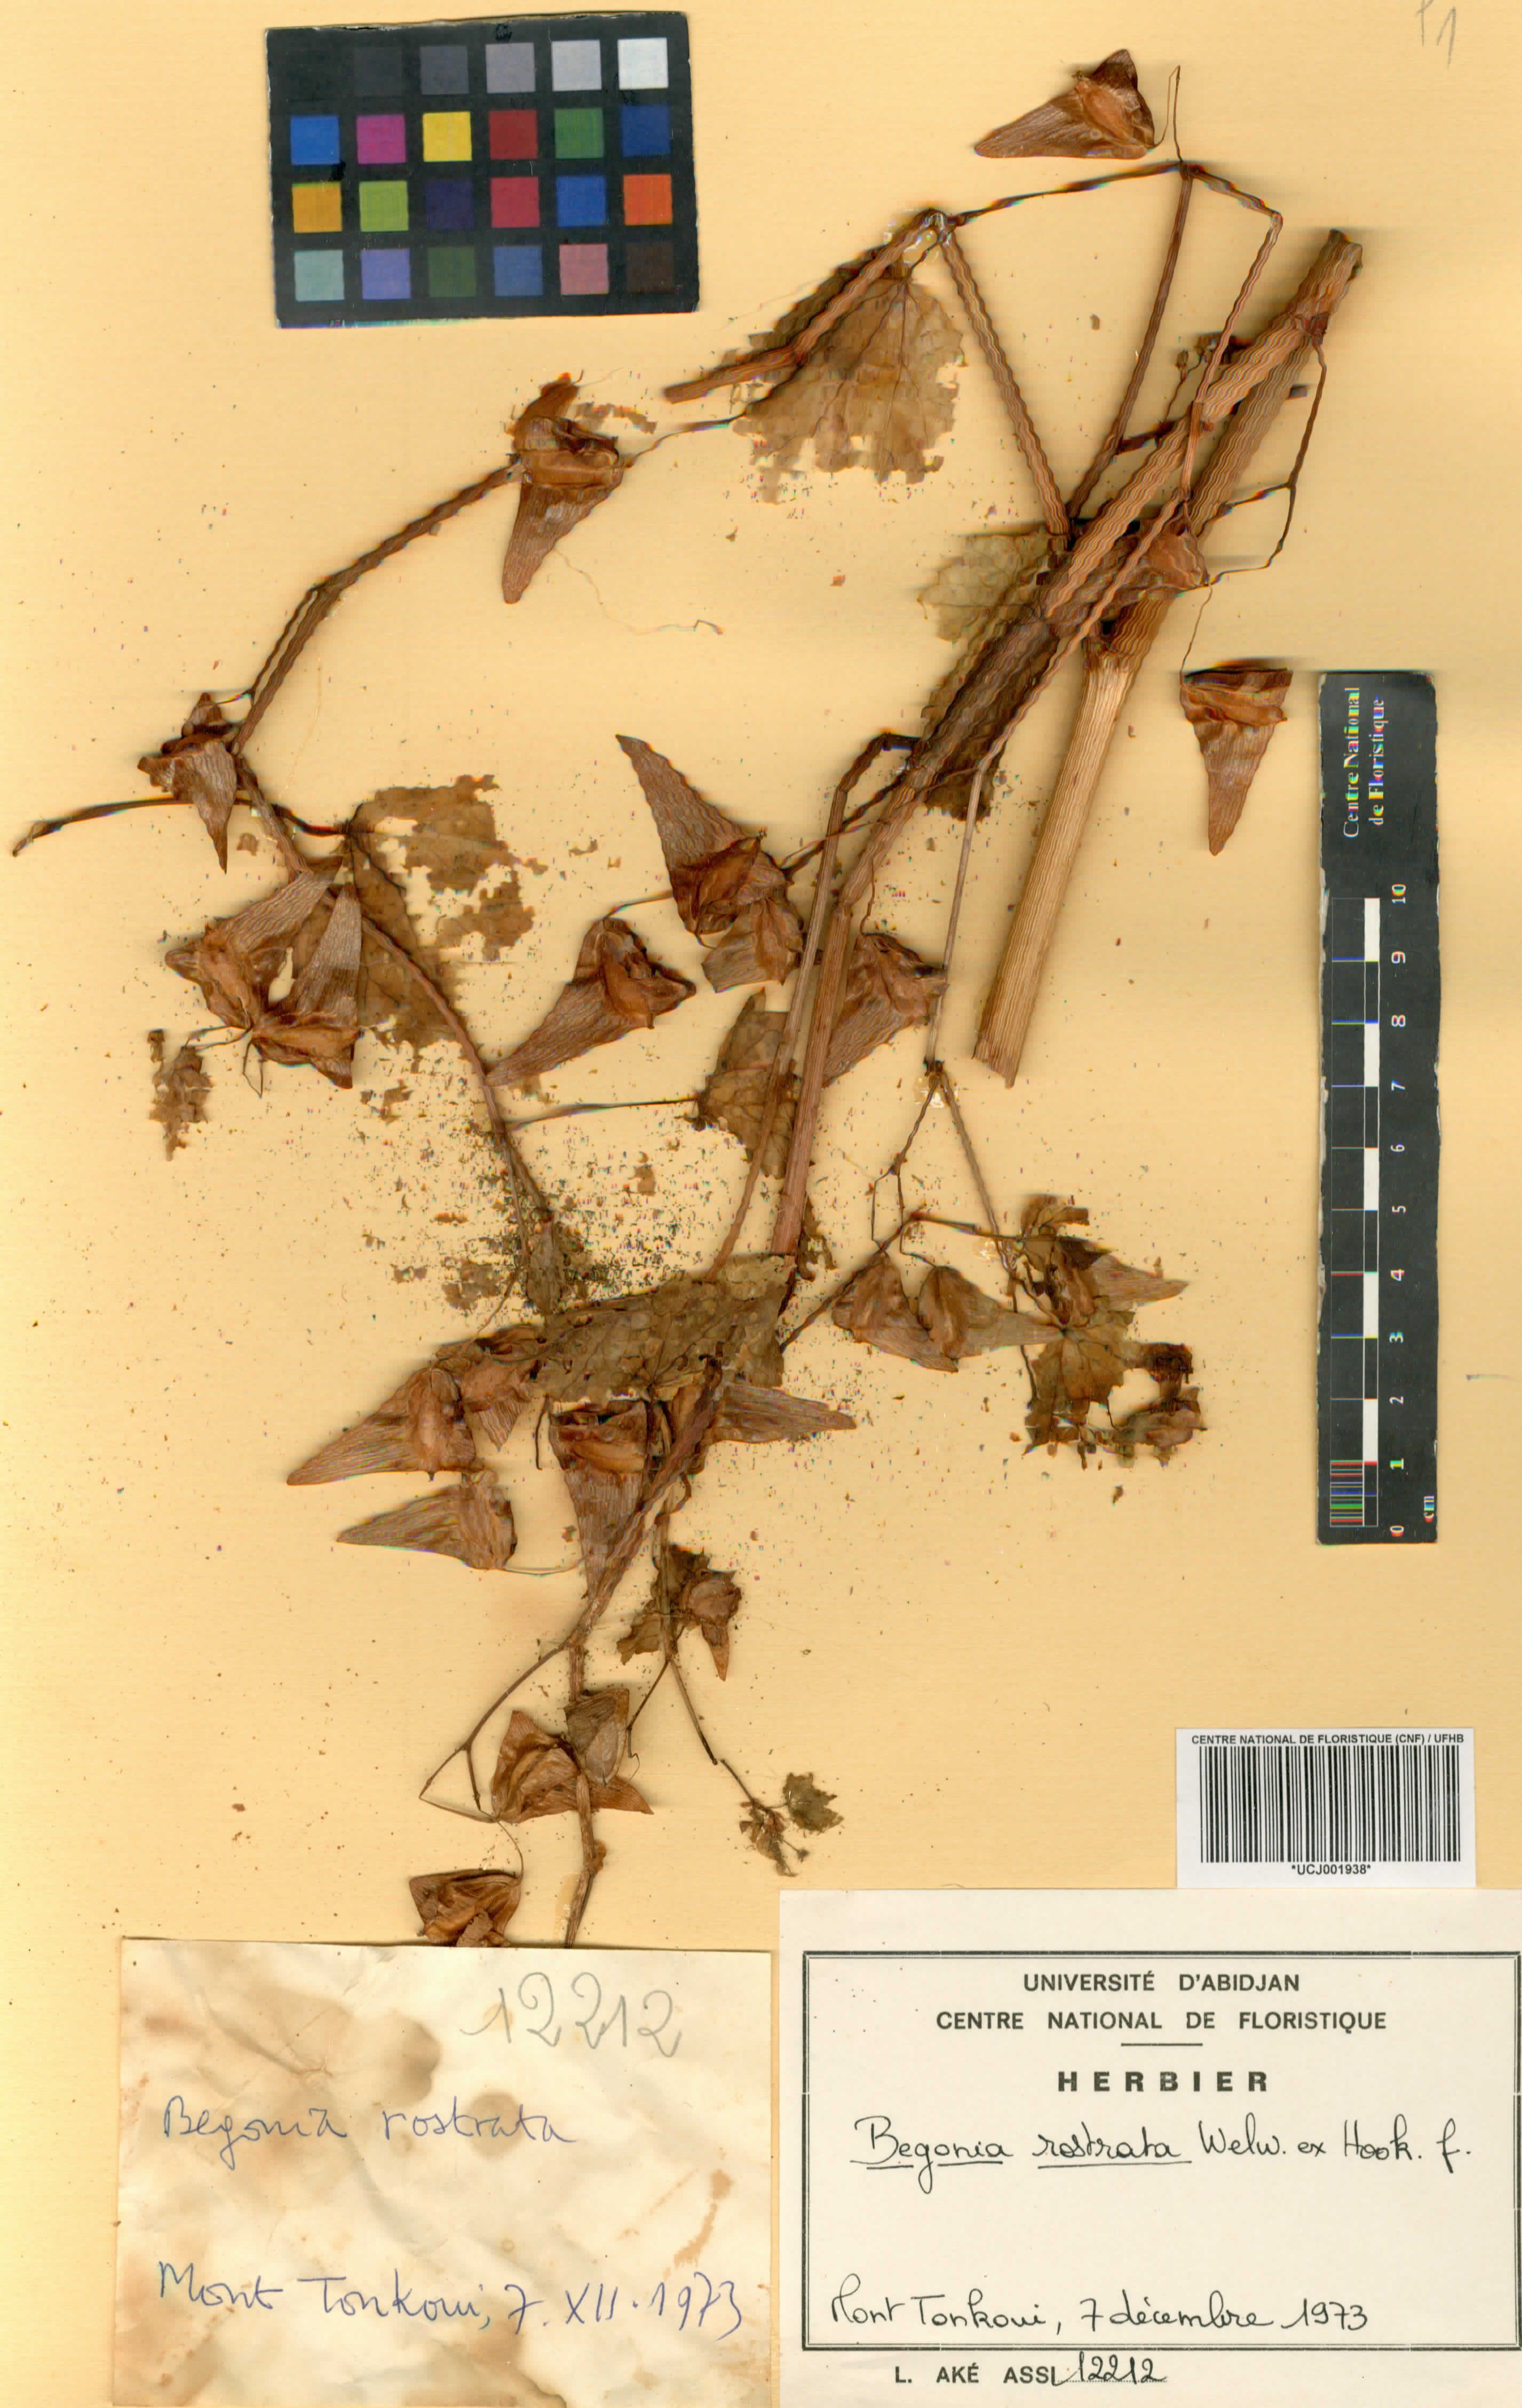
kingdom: Plantae
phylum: Tracheophyta
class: Magnoliopsida
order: Cucurbitales
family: Begoniaceae
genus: Begonia
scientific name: Begonia rostrata
